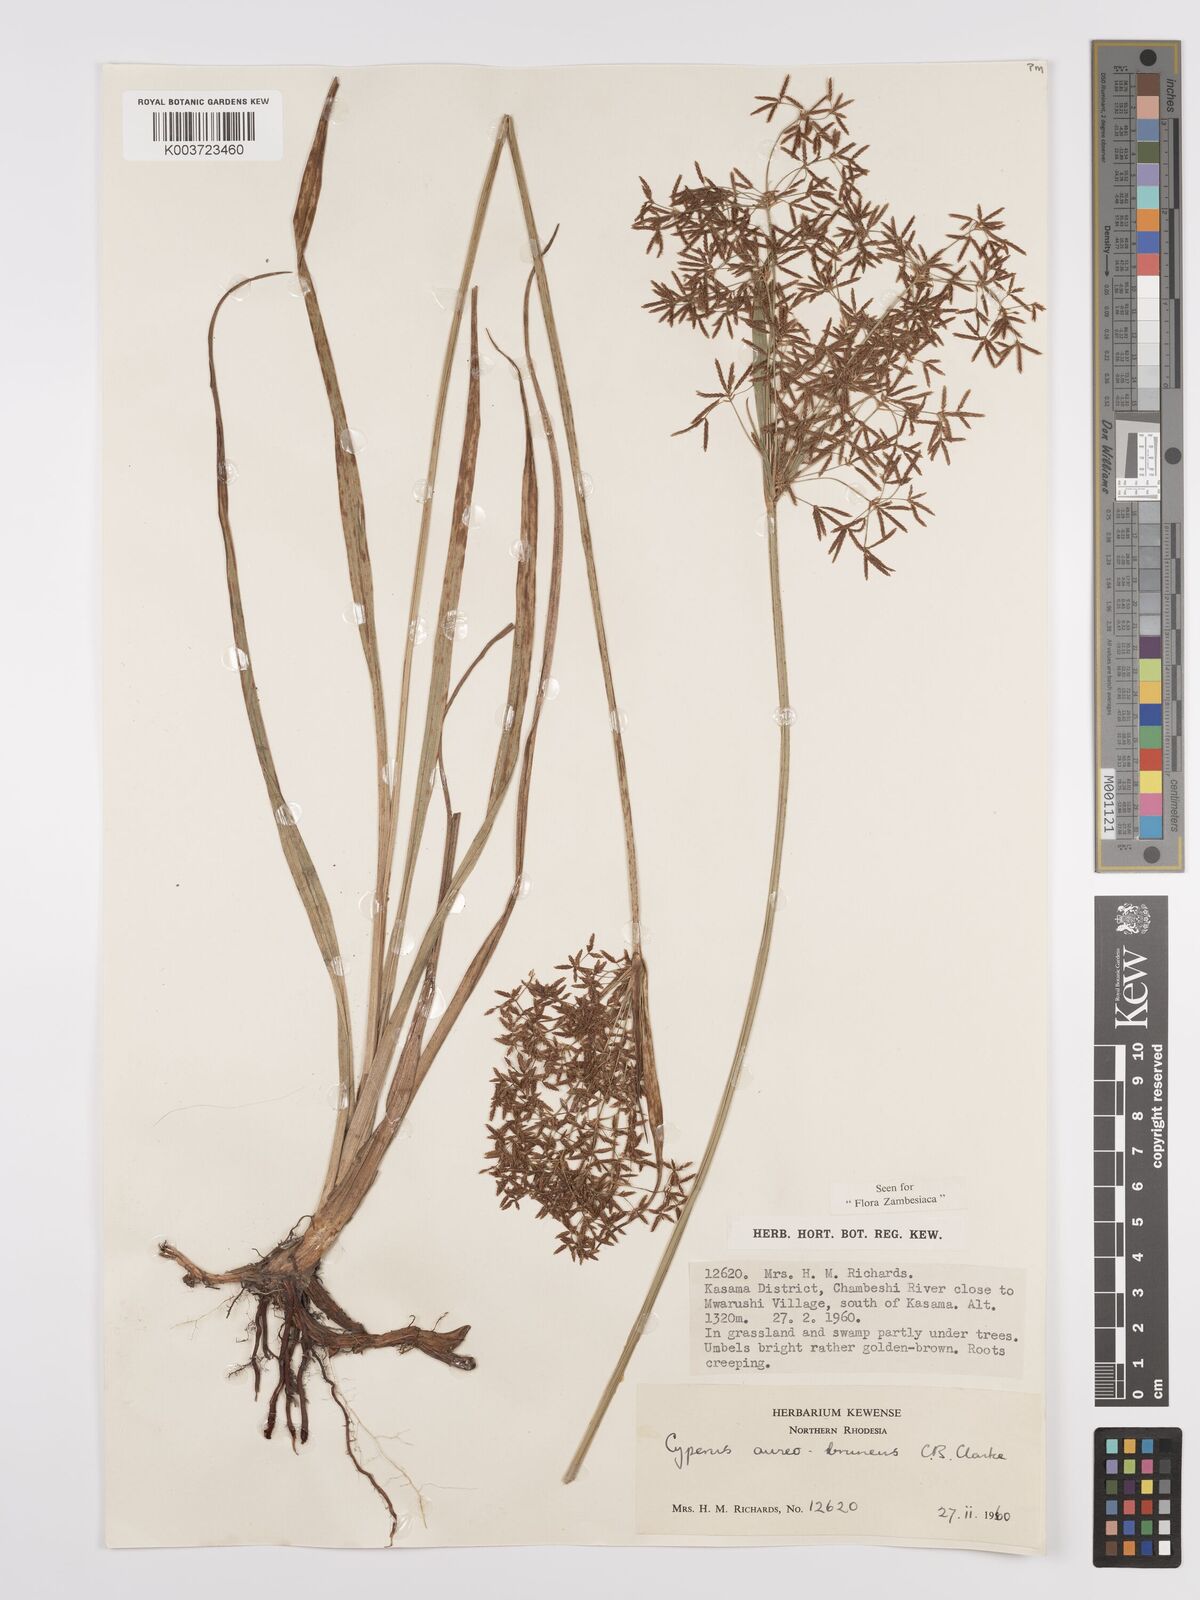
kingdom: Plantae
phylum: Tracheophyta
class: Liliopsida
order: Poales
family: Cyperaceae
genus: Cyperus
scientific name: Cyperus aureobrunneus
